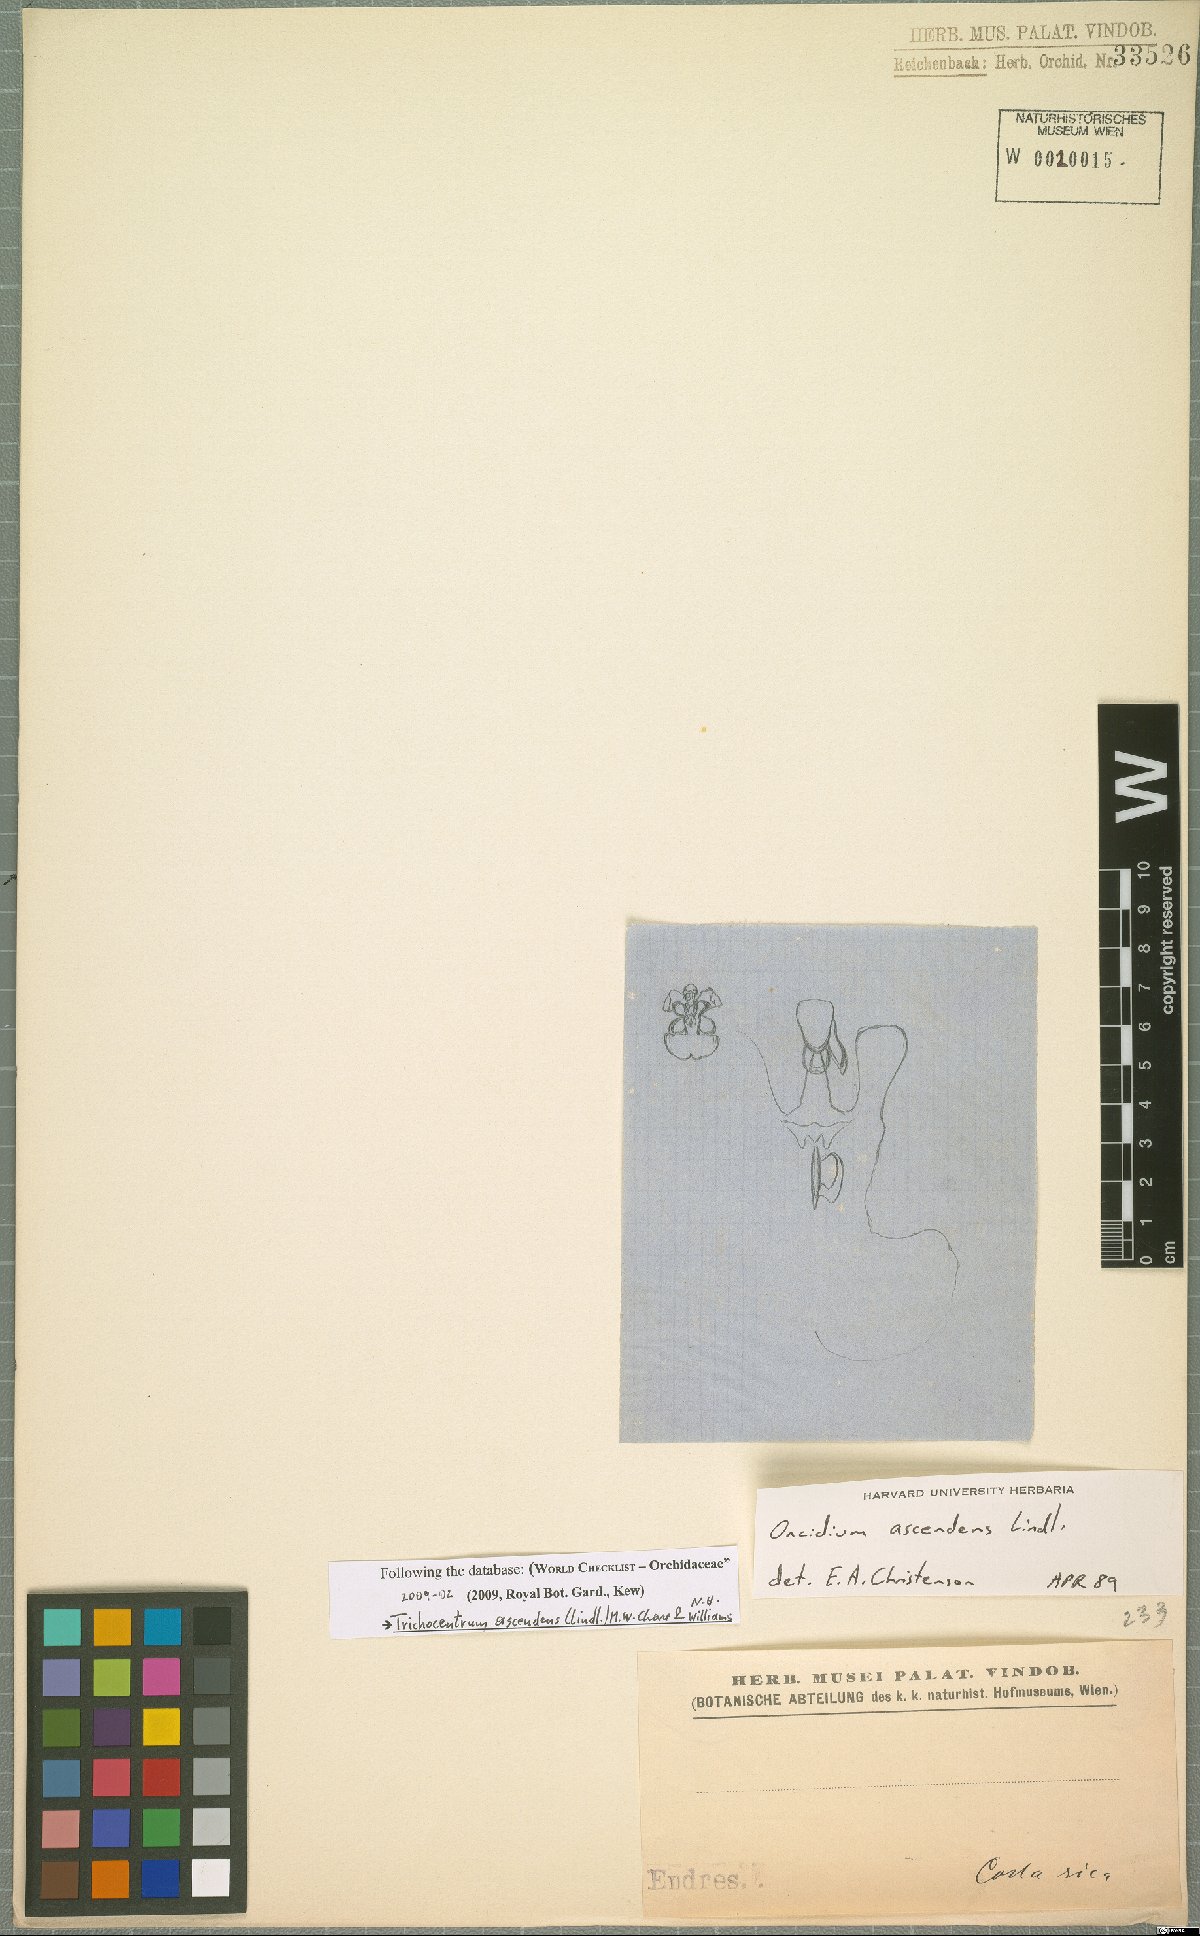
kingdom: Plantae
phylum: Tracheophyta
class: Liliopsida
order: Asparagales
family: Orchidaceae
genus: Trichocentrum
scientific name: Trichocentrum ascendens
